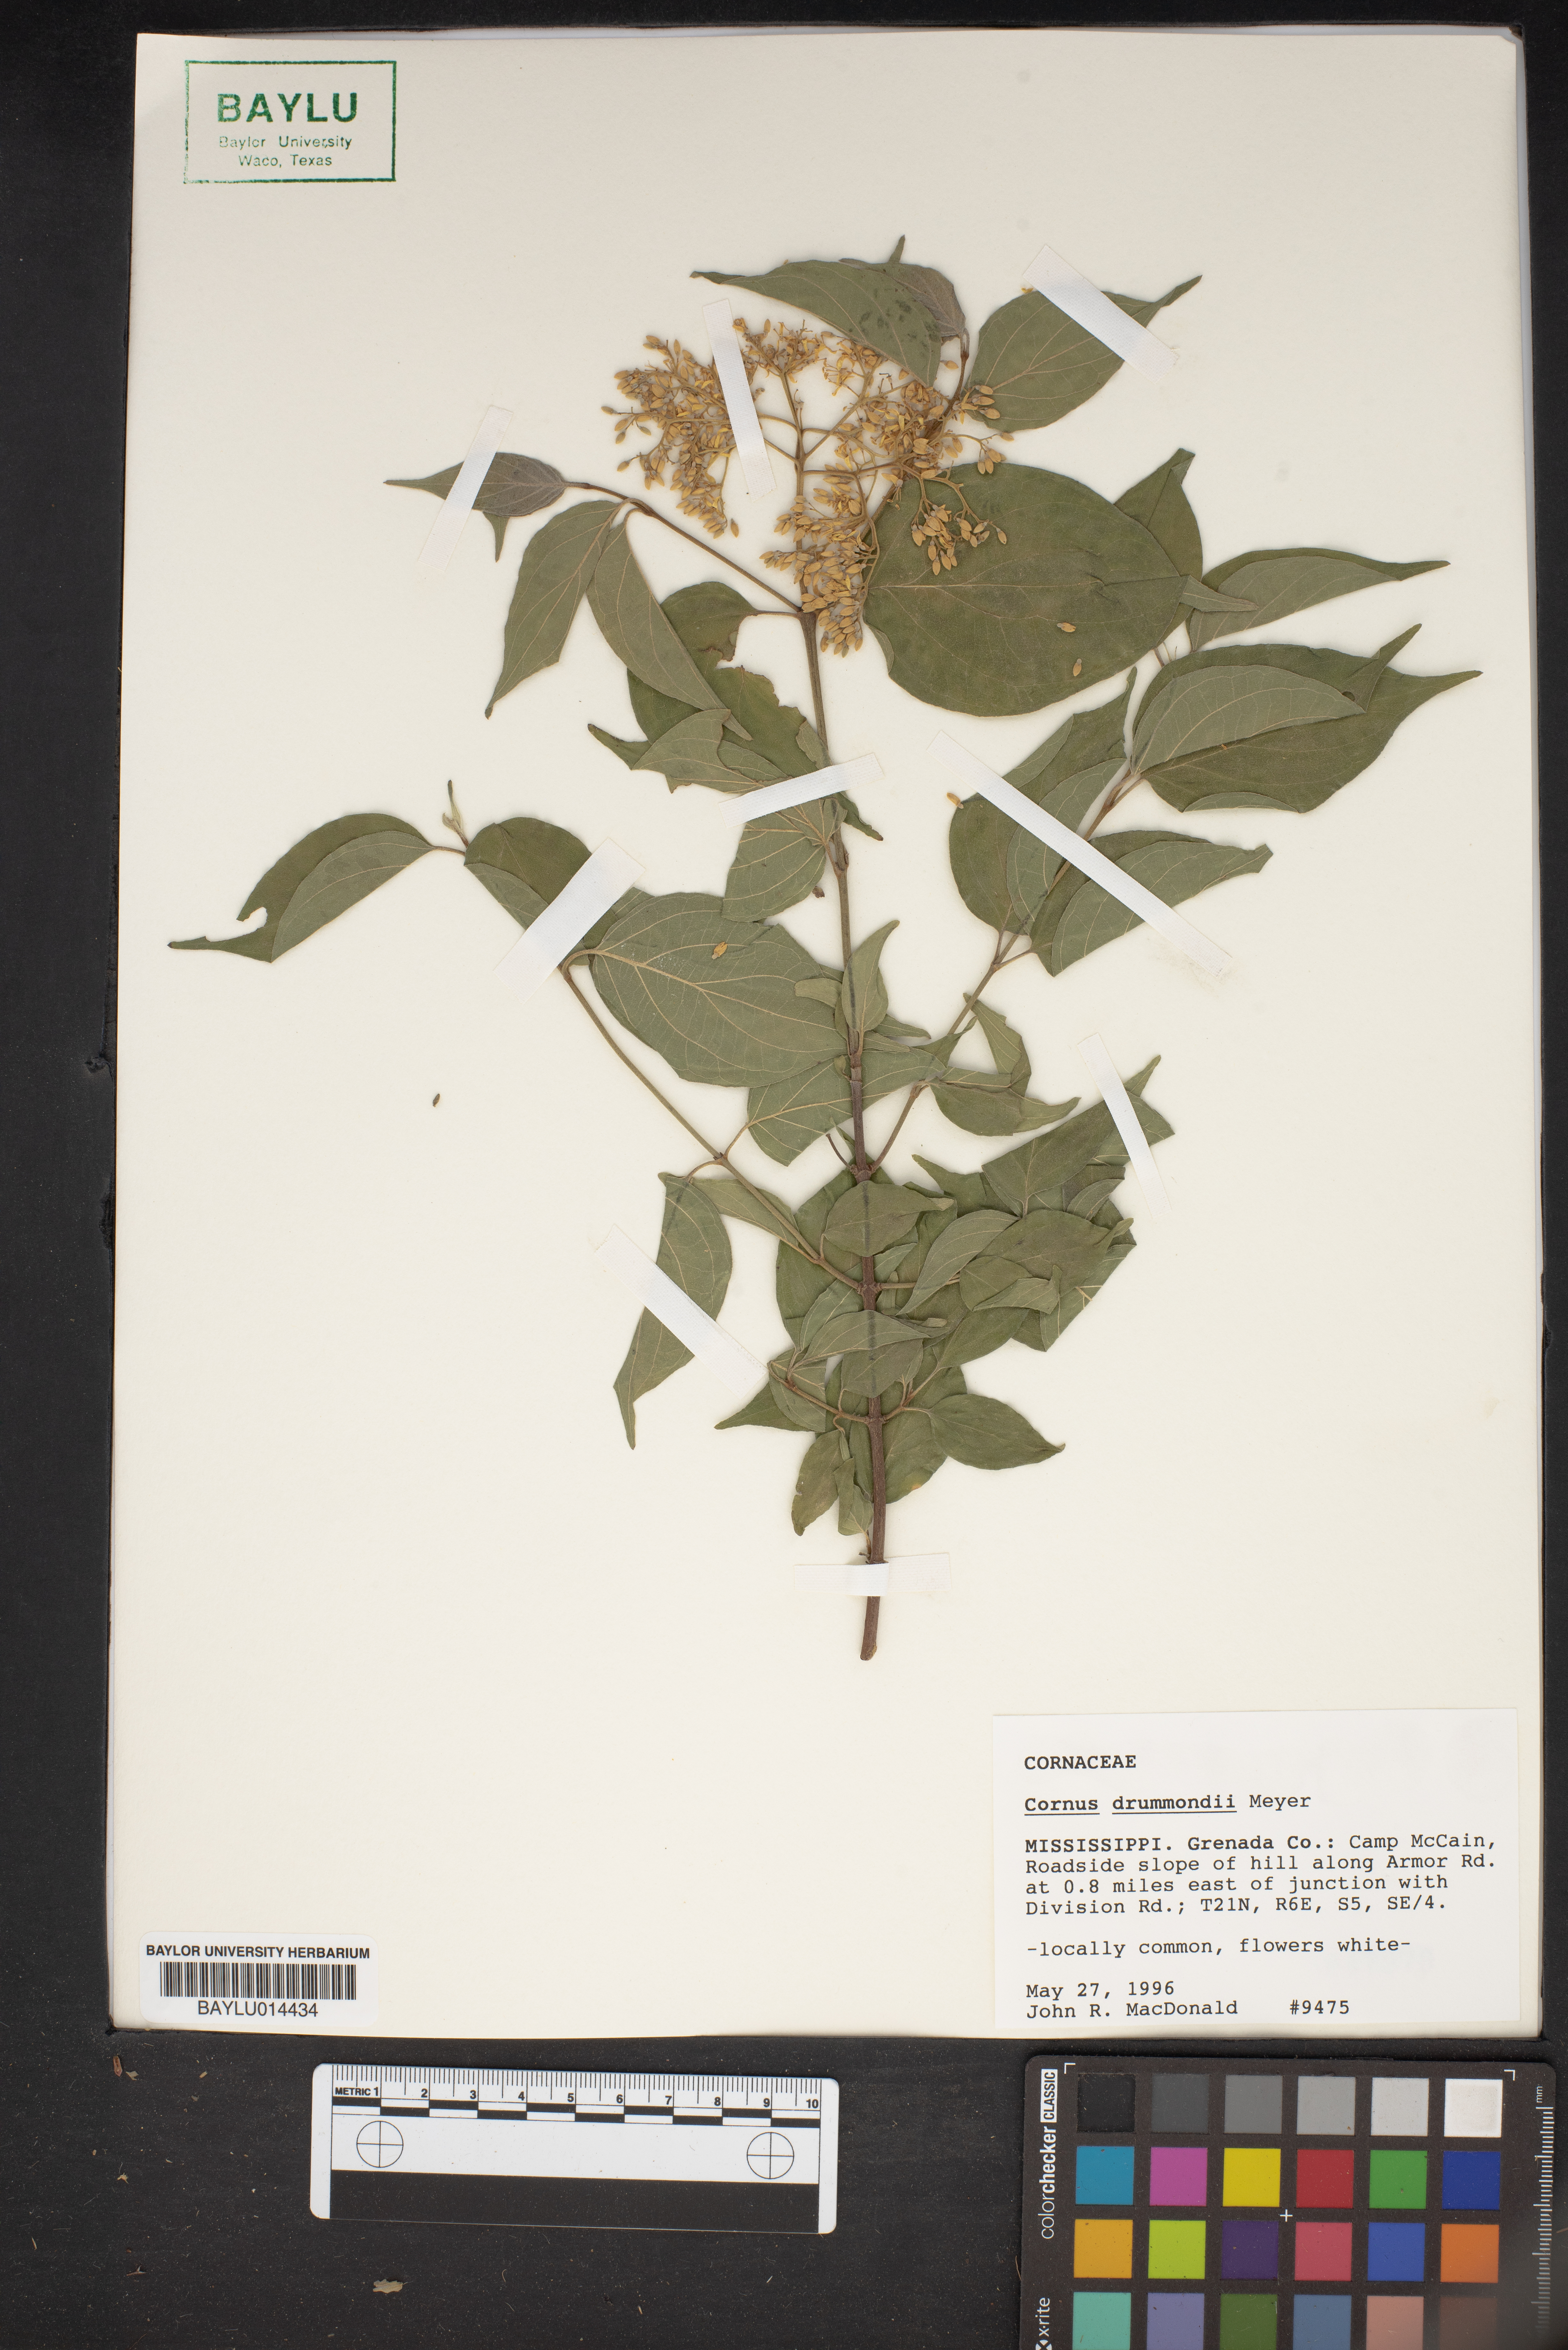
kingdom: Plantae
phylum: Tracheophyta
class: Magnoliopsida
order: Cornales
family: Cornaceae
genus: Cornus
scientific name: Cornus drummondii
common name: Rough-leaf dogwood
